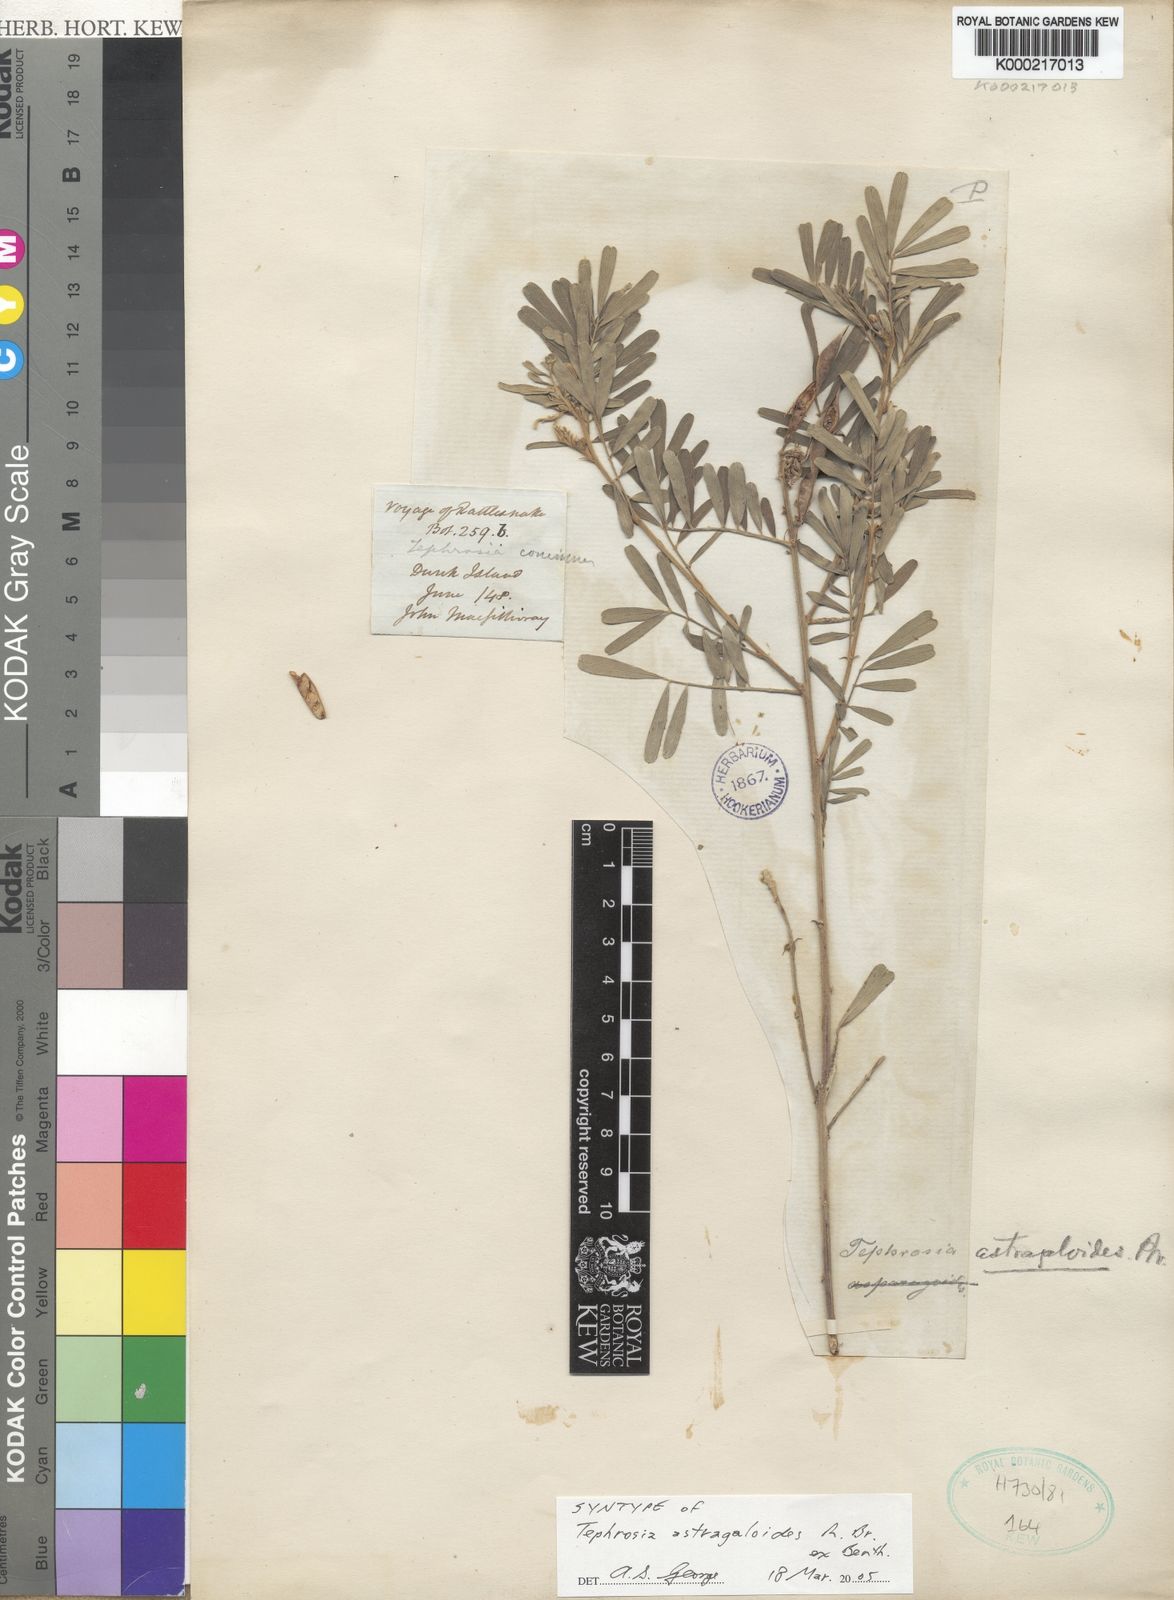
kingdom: Plantae
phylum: Tracheophyta
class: Magnoliopsida
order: Fabales
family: Fabaceae
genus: Tephrosia
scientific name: Tephrosia astragaloides
